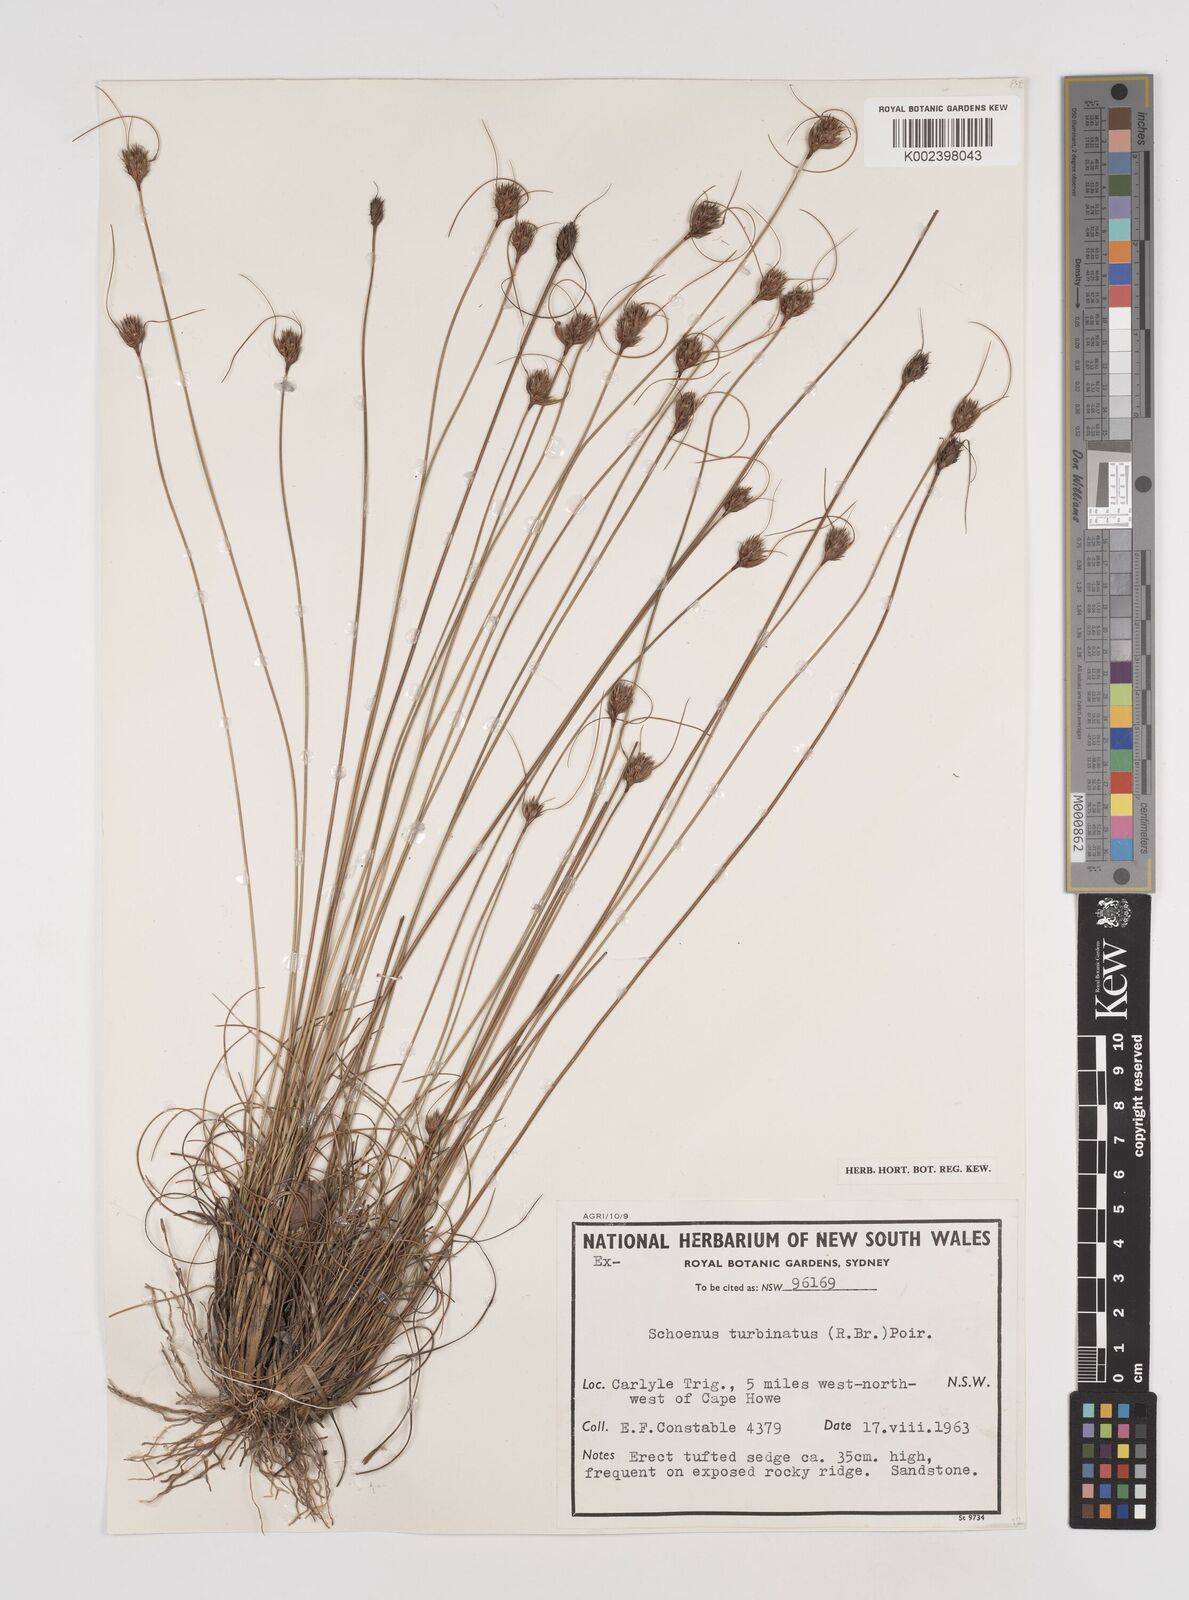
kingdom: Plantae
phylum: Tracheophyta
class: Liliopsida
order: Poales
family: Cyperaceae
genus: Schoenus
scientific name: Schoenus turbinatus
